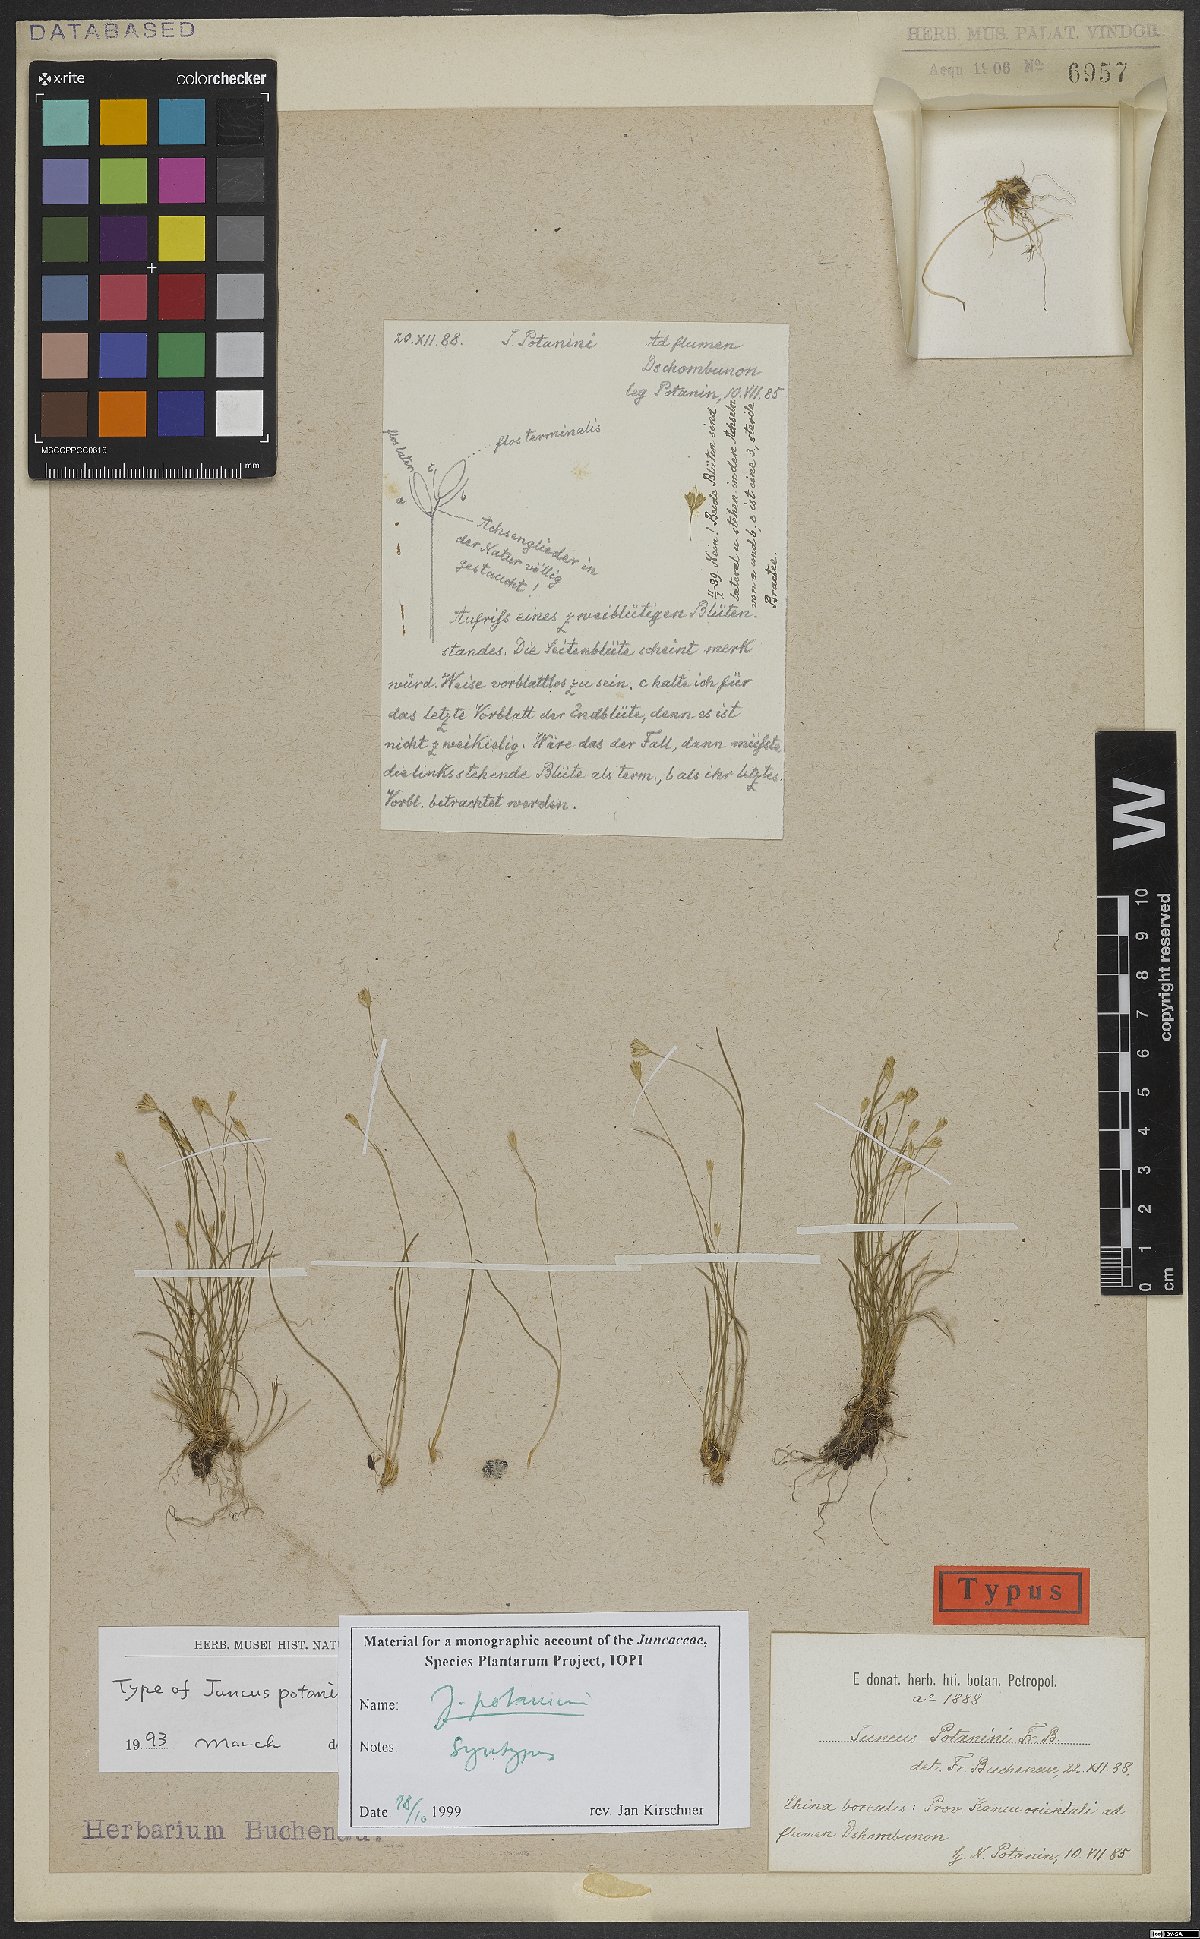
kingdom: Plantae
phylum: Tracheophyta
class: Liliopsida
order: Poales
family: Juncaceae
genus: Juncus
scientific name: Juncus potaninii
